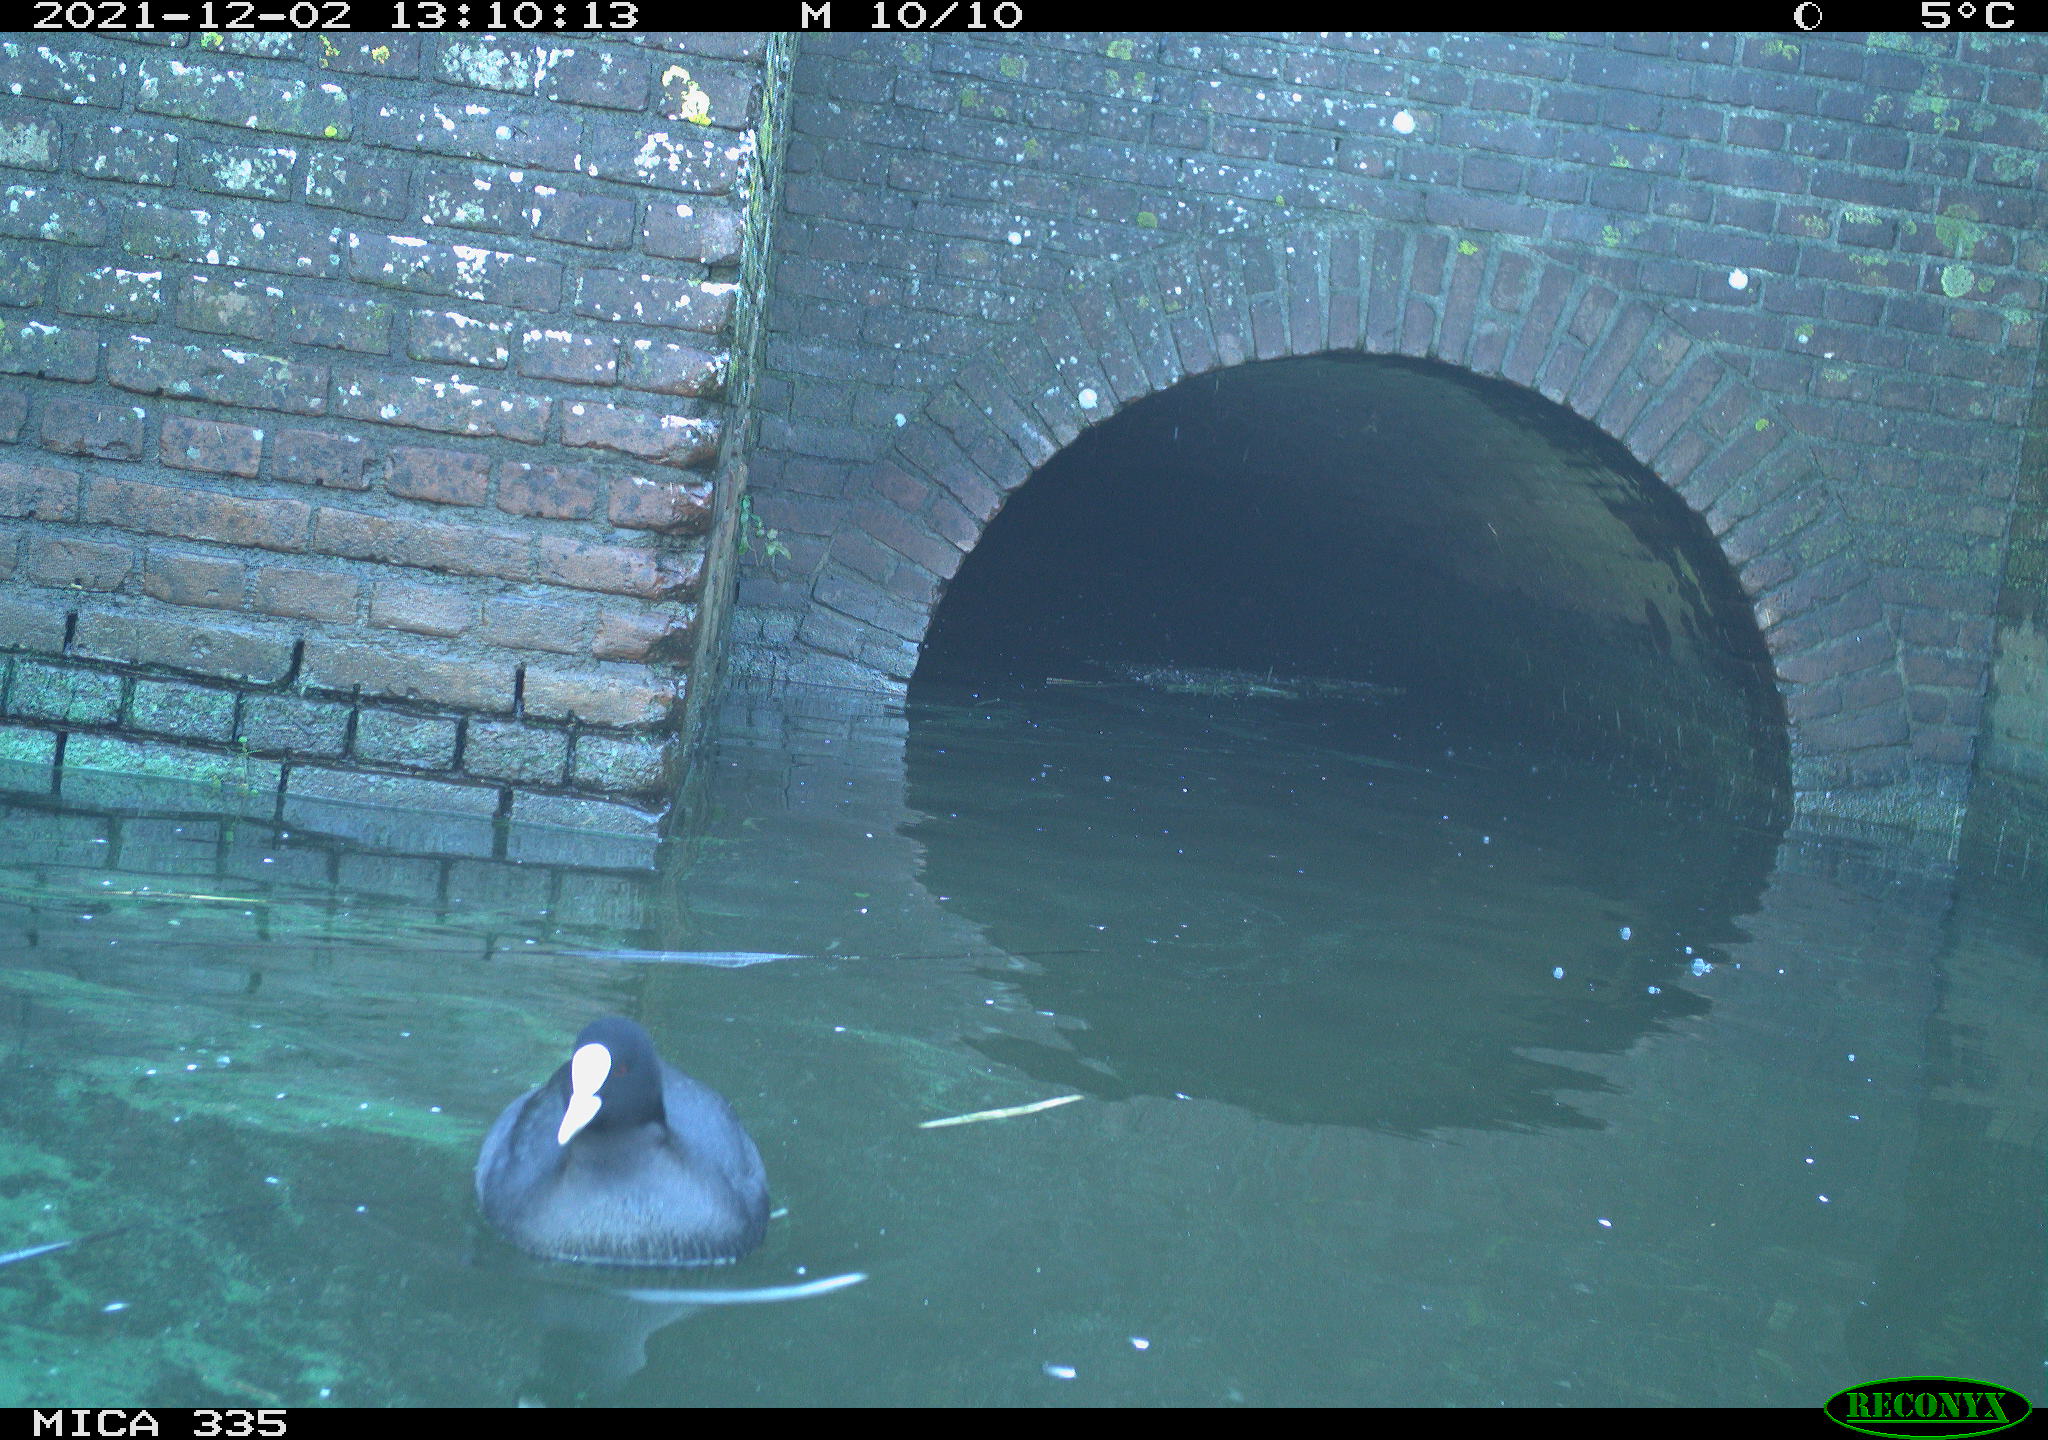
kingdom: Animalia
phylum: Chordata
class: Aves
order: Anseriformes
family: Anatidae
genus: Anas
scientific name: Anas platyrhynchos
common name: Mallard
